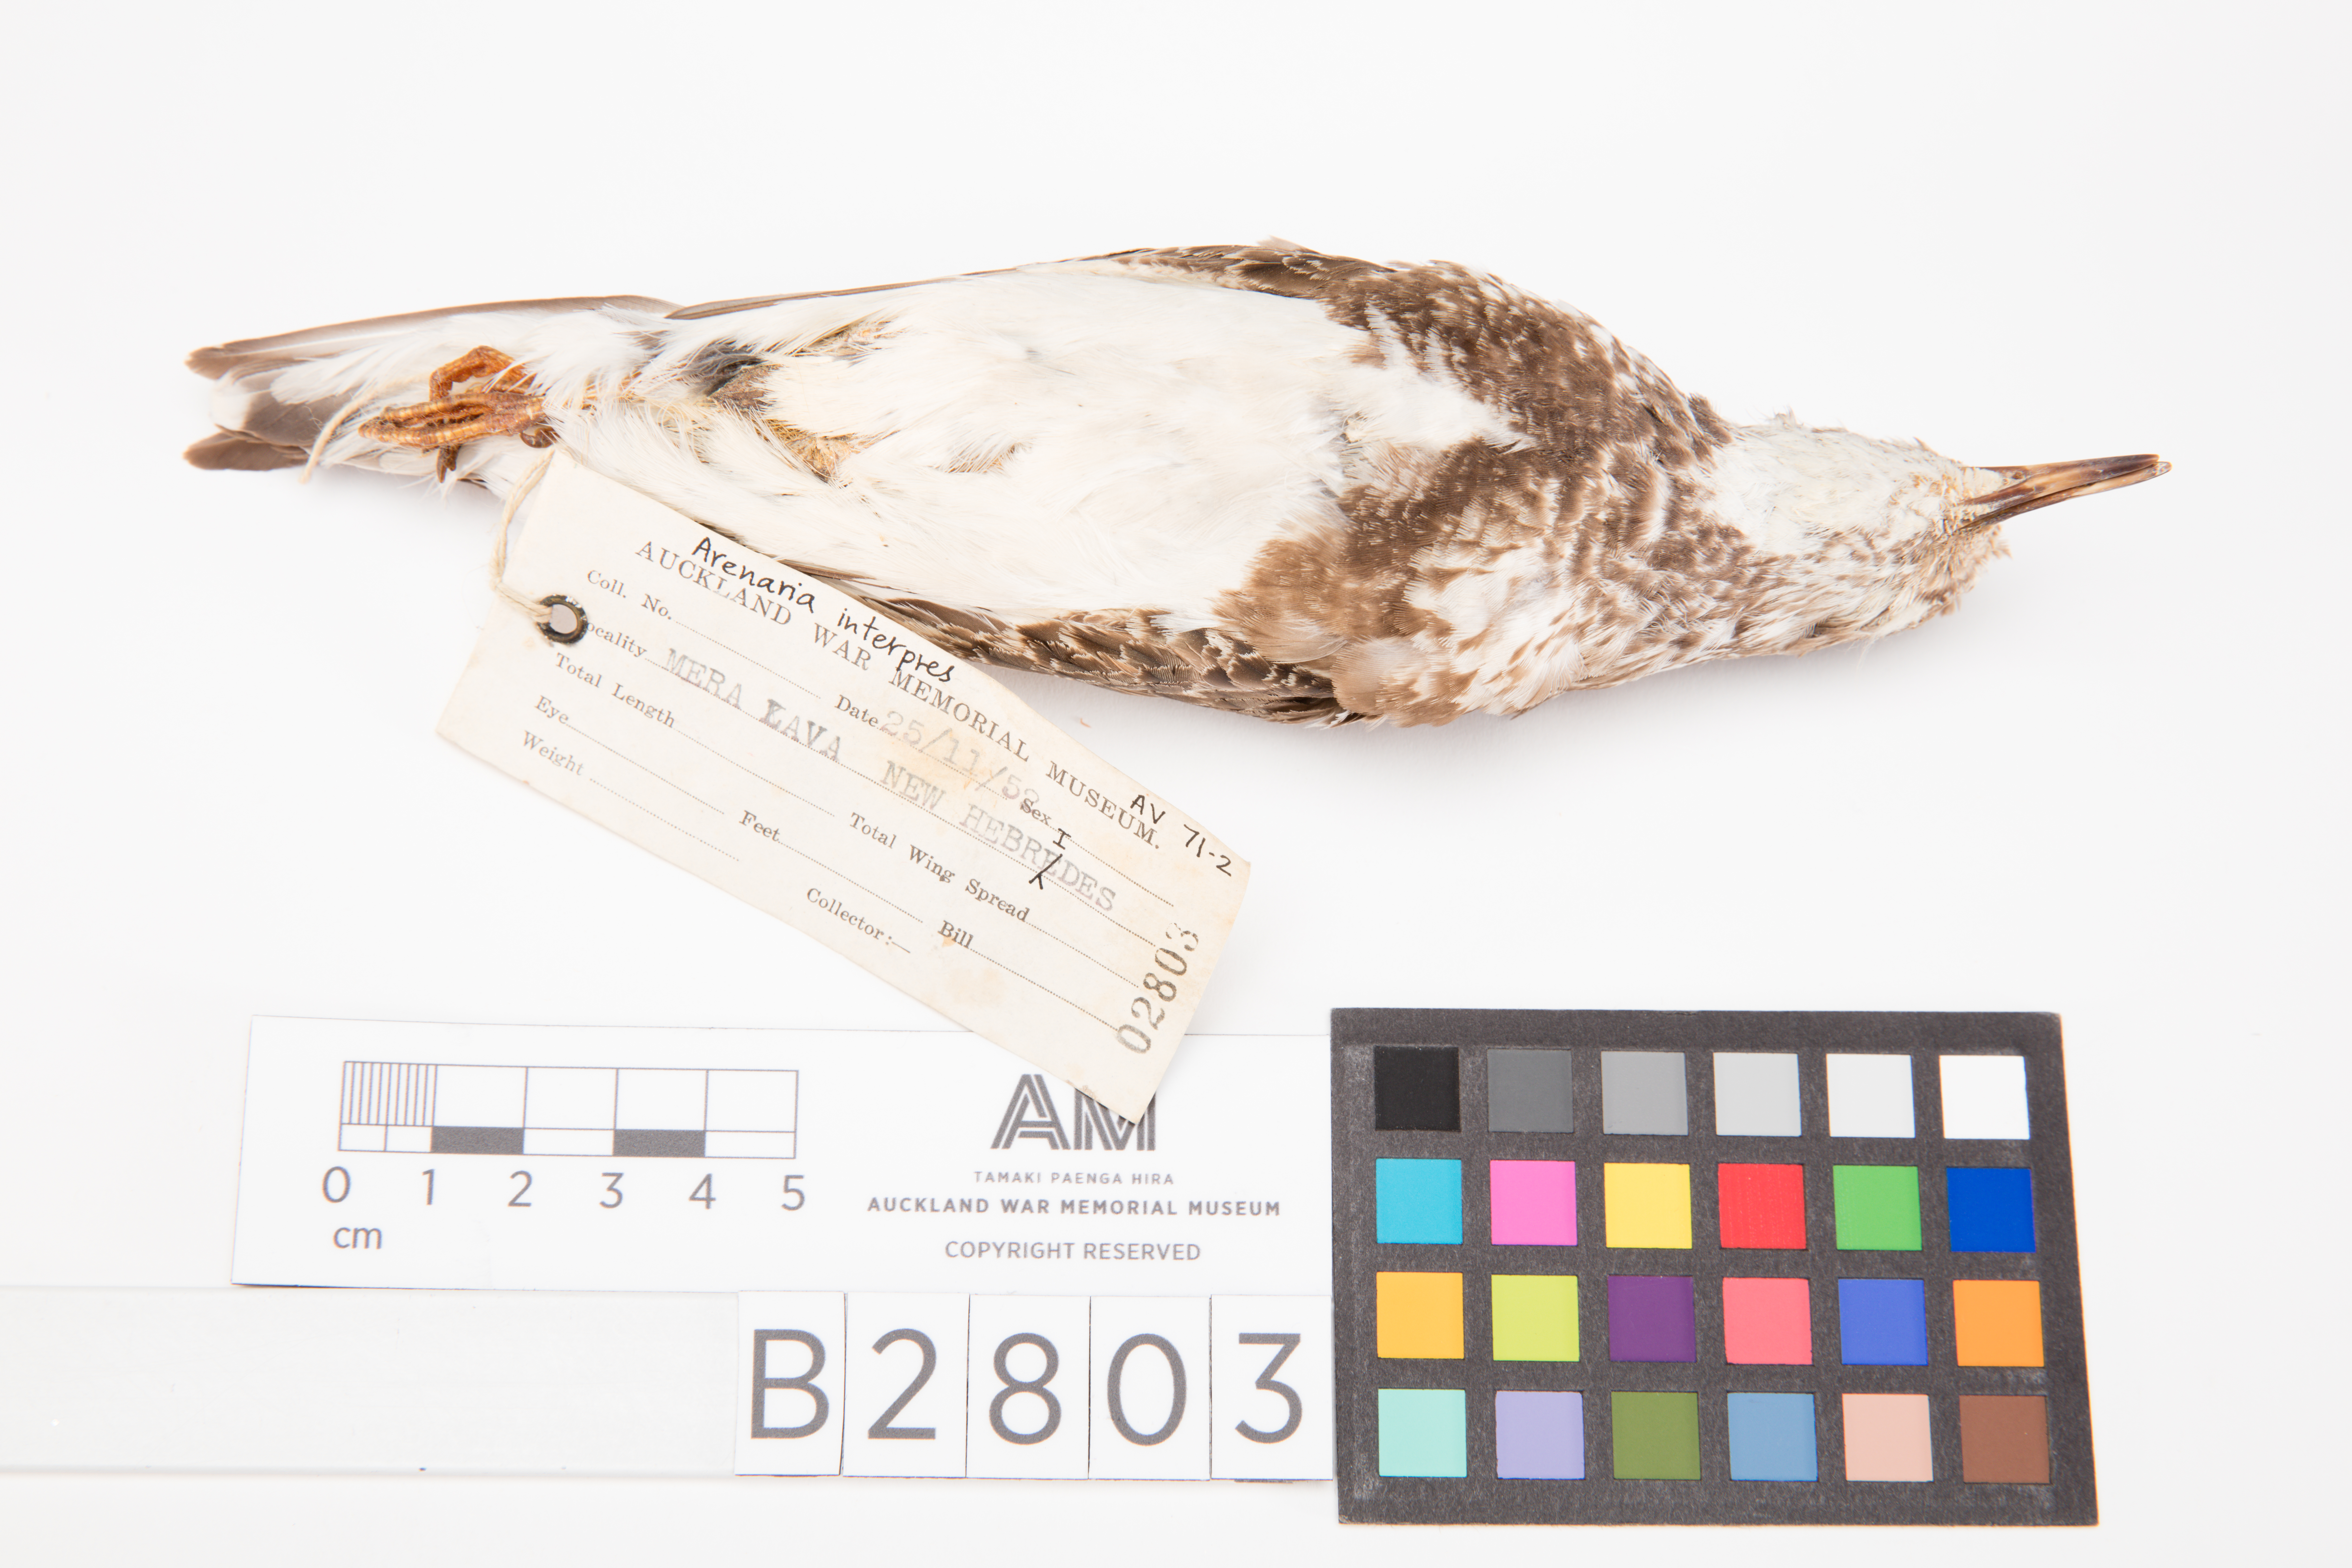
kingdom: Animalia
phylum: Chordata
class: Aves
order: Charadriiformes
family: Scolopacidae
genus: Arenaria
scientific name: Arenaria interpres
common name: Ruddy turnstone
